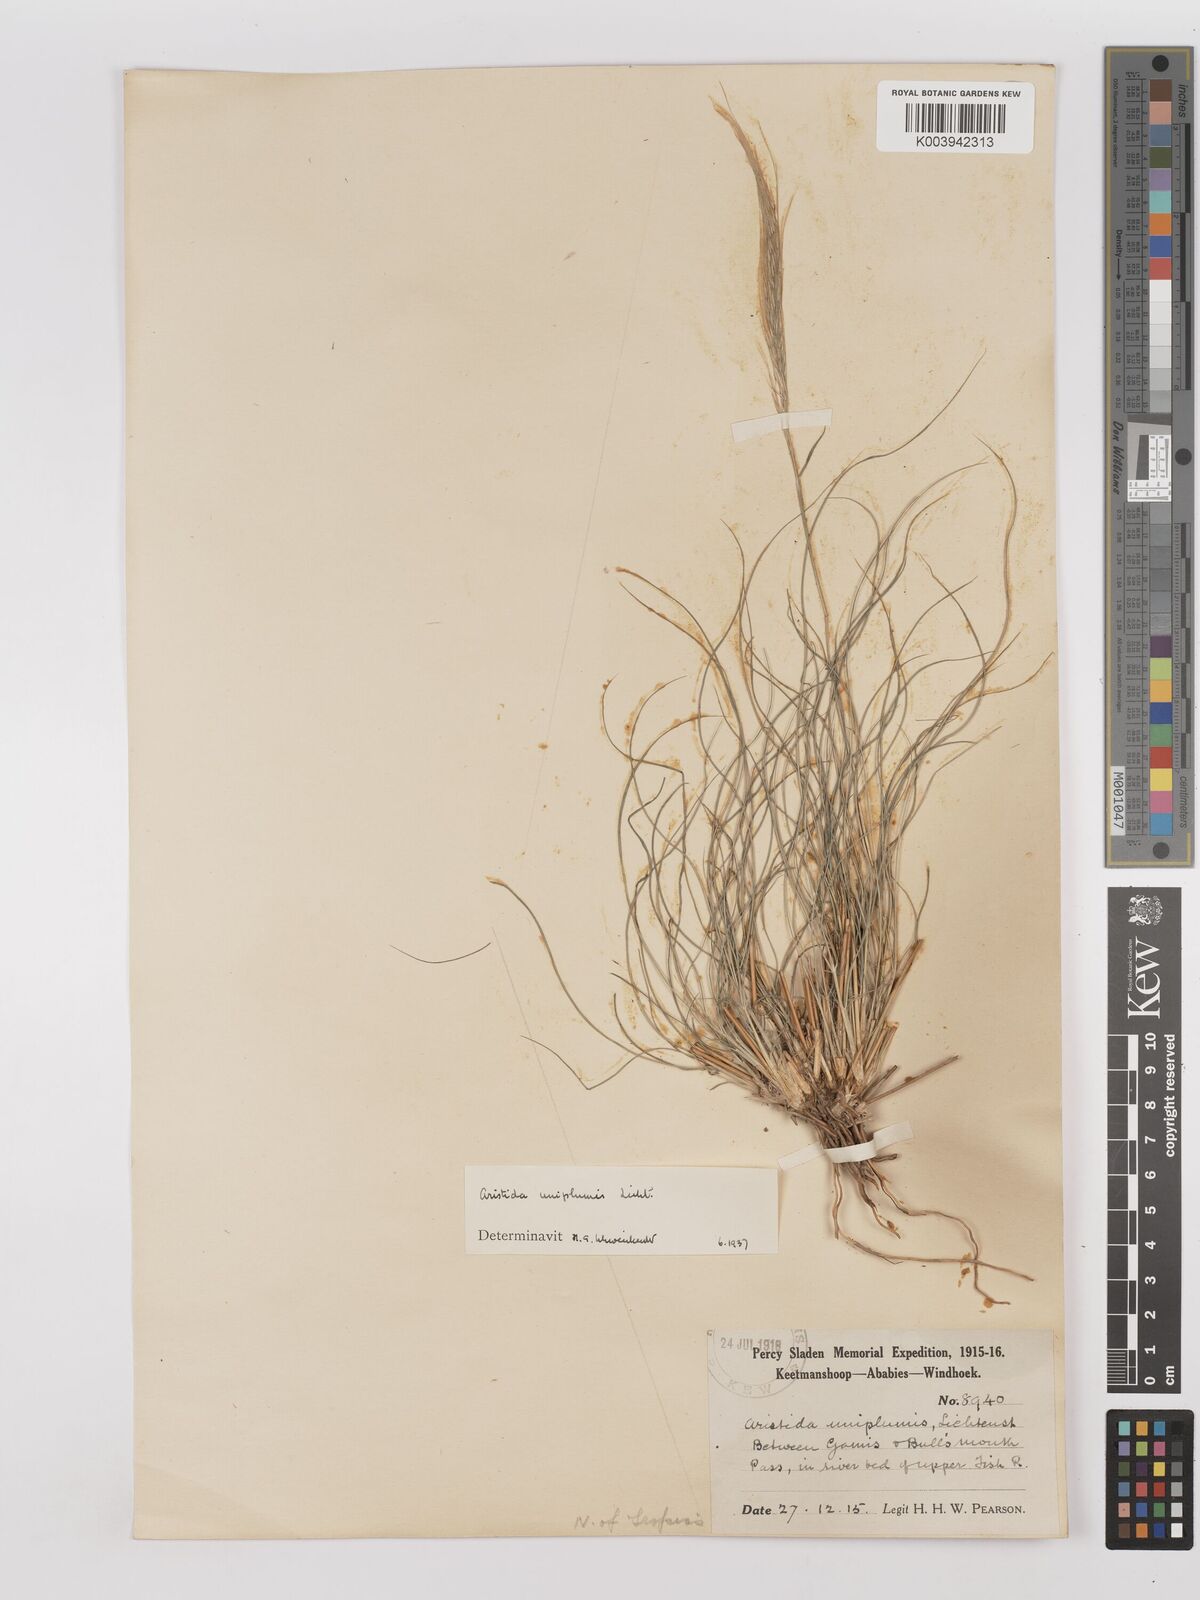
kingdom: Plantae
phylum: Tracheophyta
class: Liliopsida
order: Poales
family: Poaceae
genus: Stipagrostis
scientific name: Stipagrostis uniplumis
